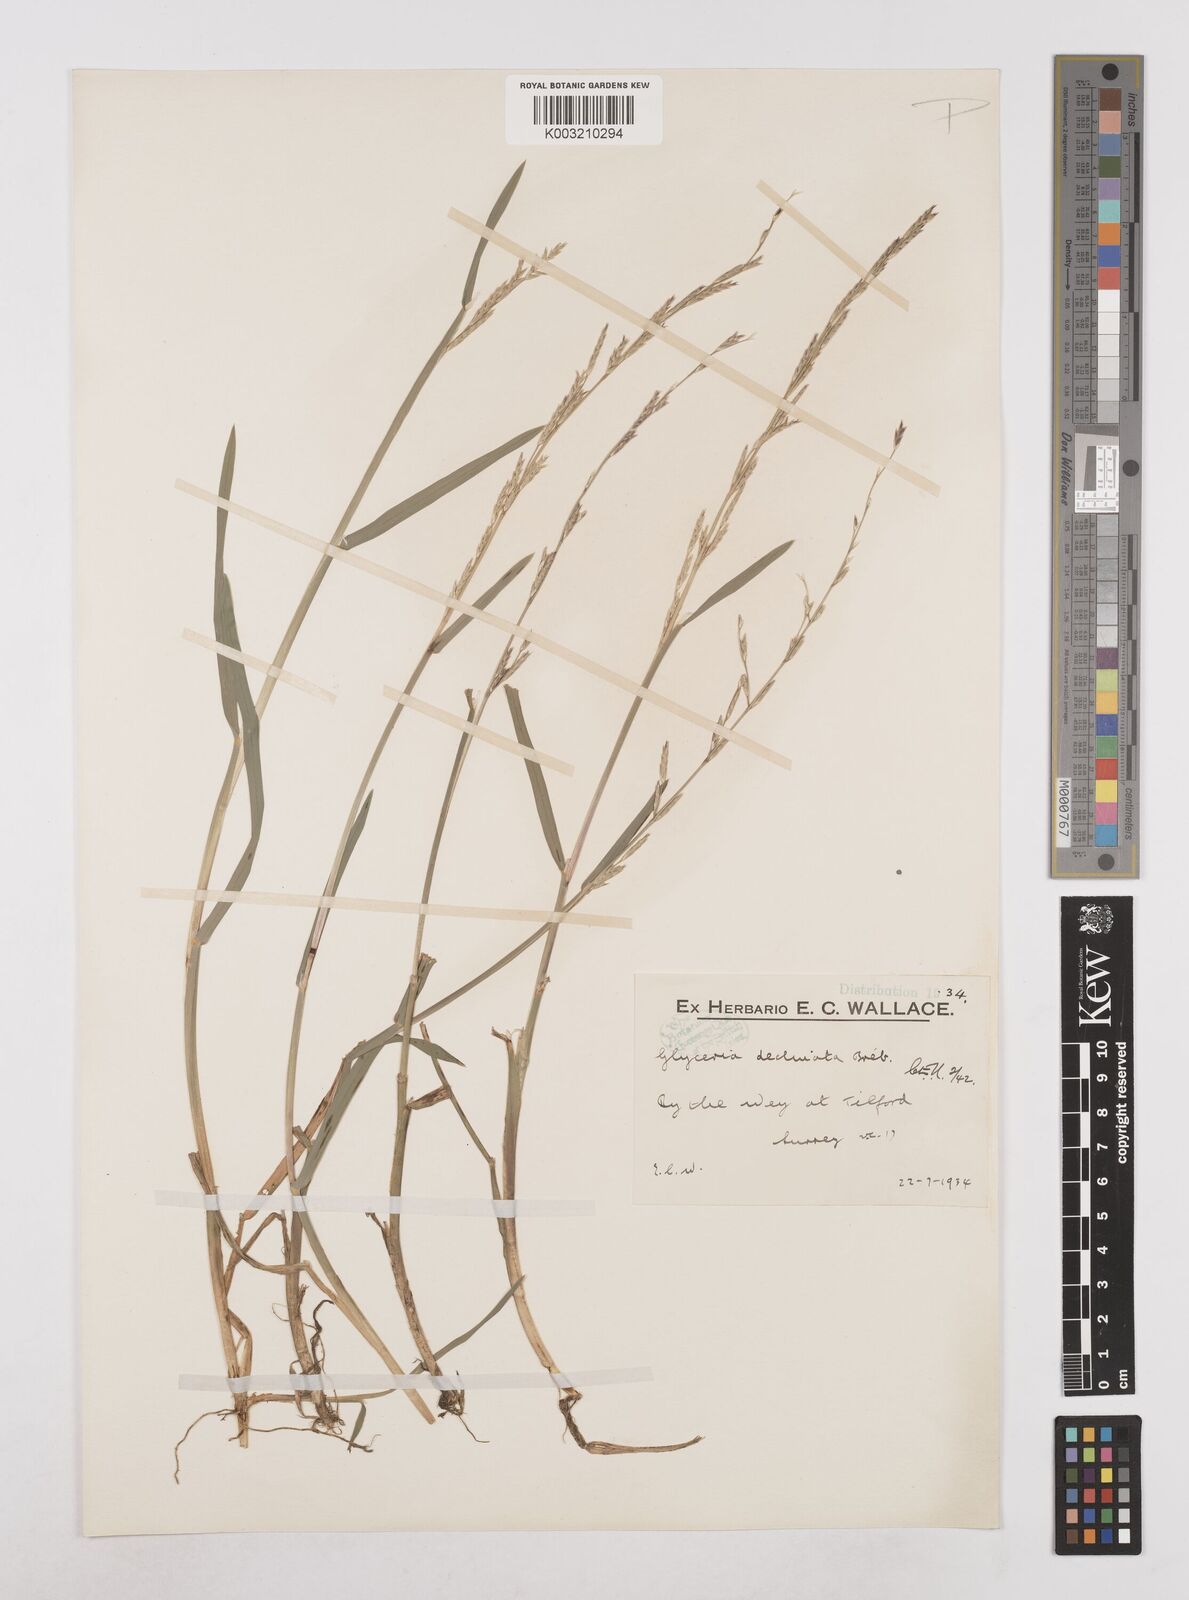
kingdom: Plantae
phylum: Tracheophyta
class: Liliopsida
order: Poales
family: Poaceae
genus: Glyceria
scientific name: Glyceria declinata
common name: Small sweet-grass
